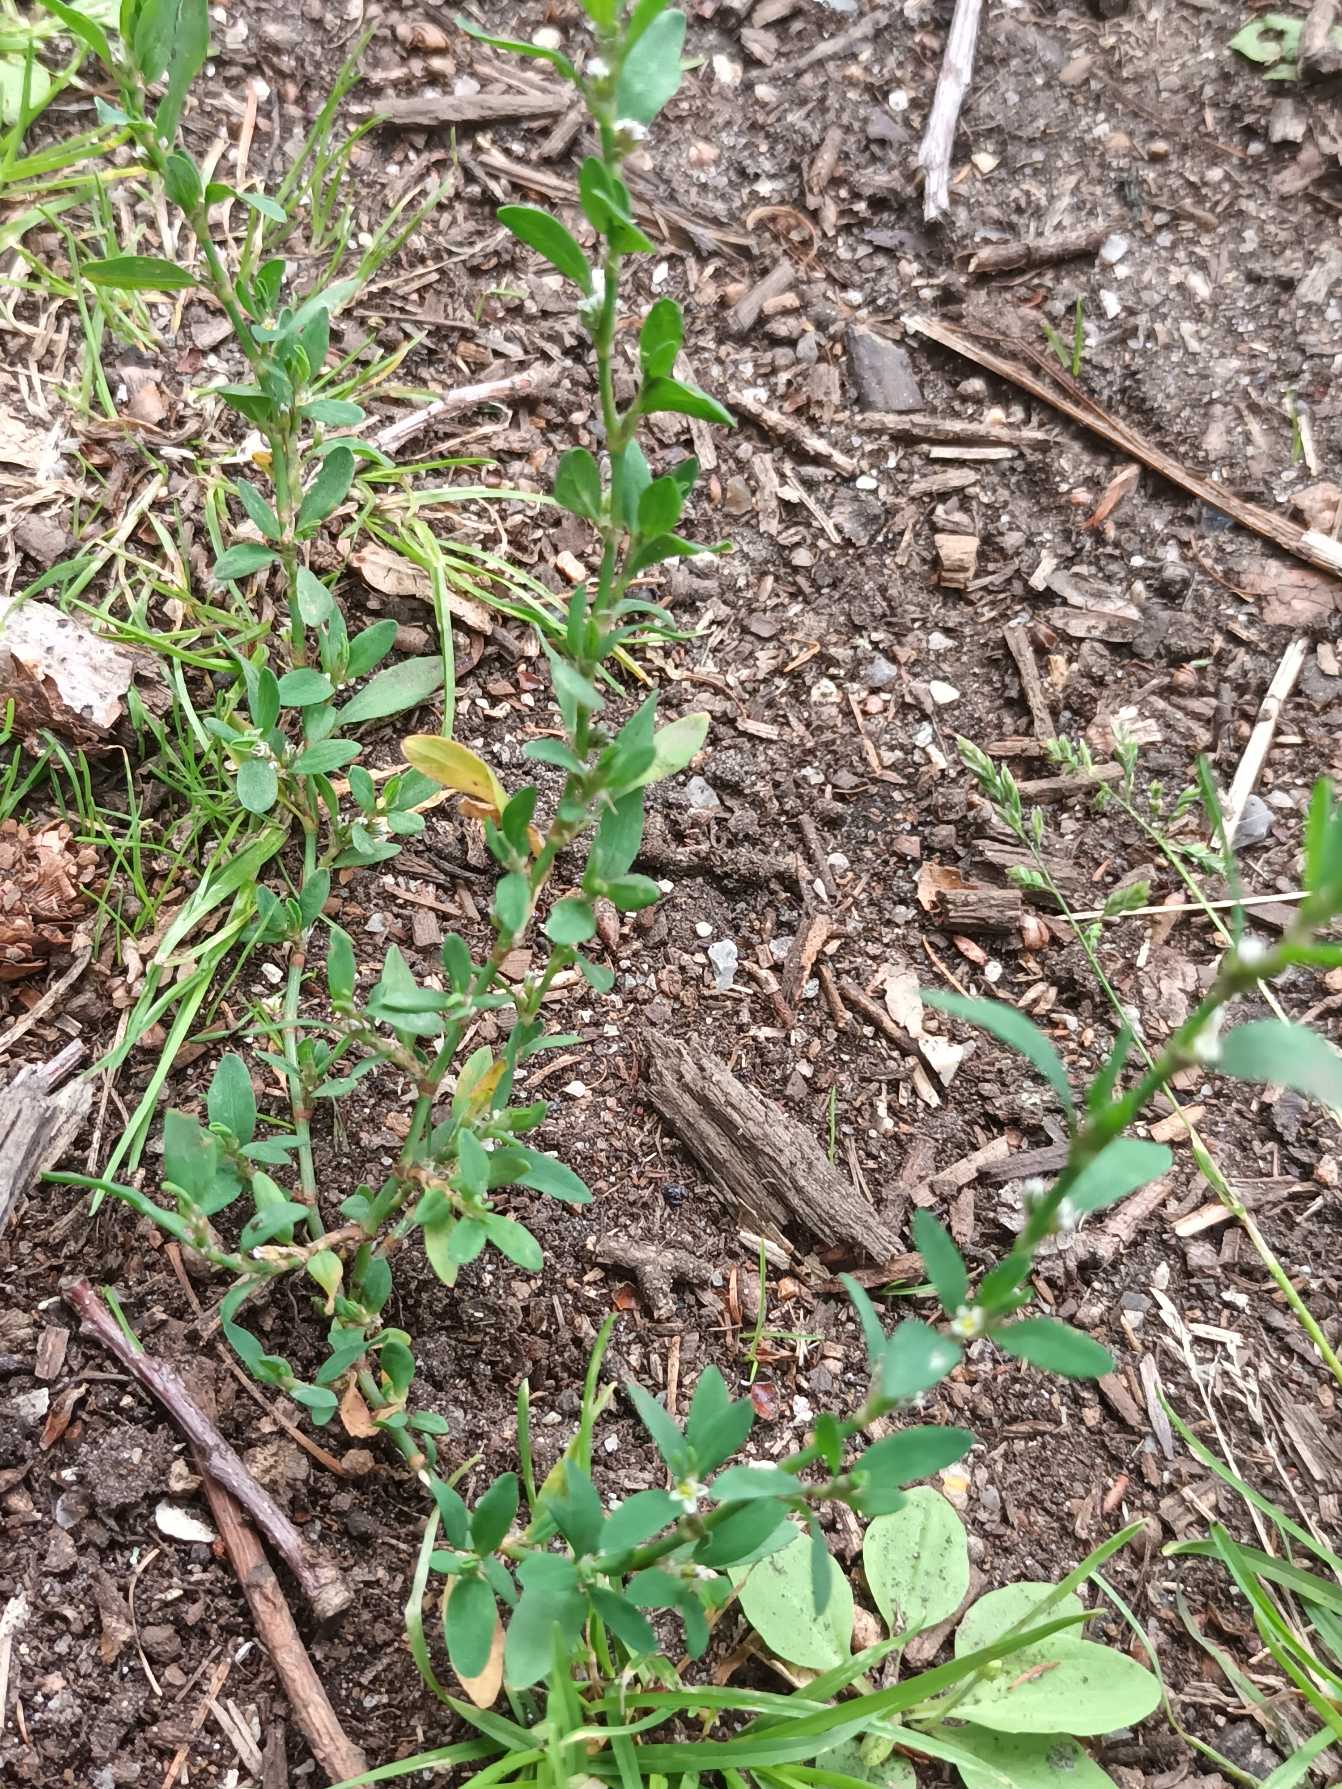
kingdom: Plantae
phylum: Tracheophyta
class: Magnoliopsida
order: Caryophyllales
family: Polygonaceae
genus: Polygonum
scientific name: Polygonum aviculare
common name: Vej-pileurt
